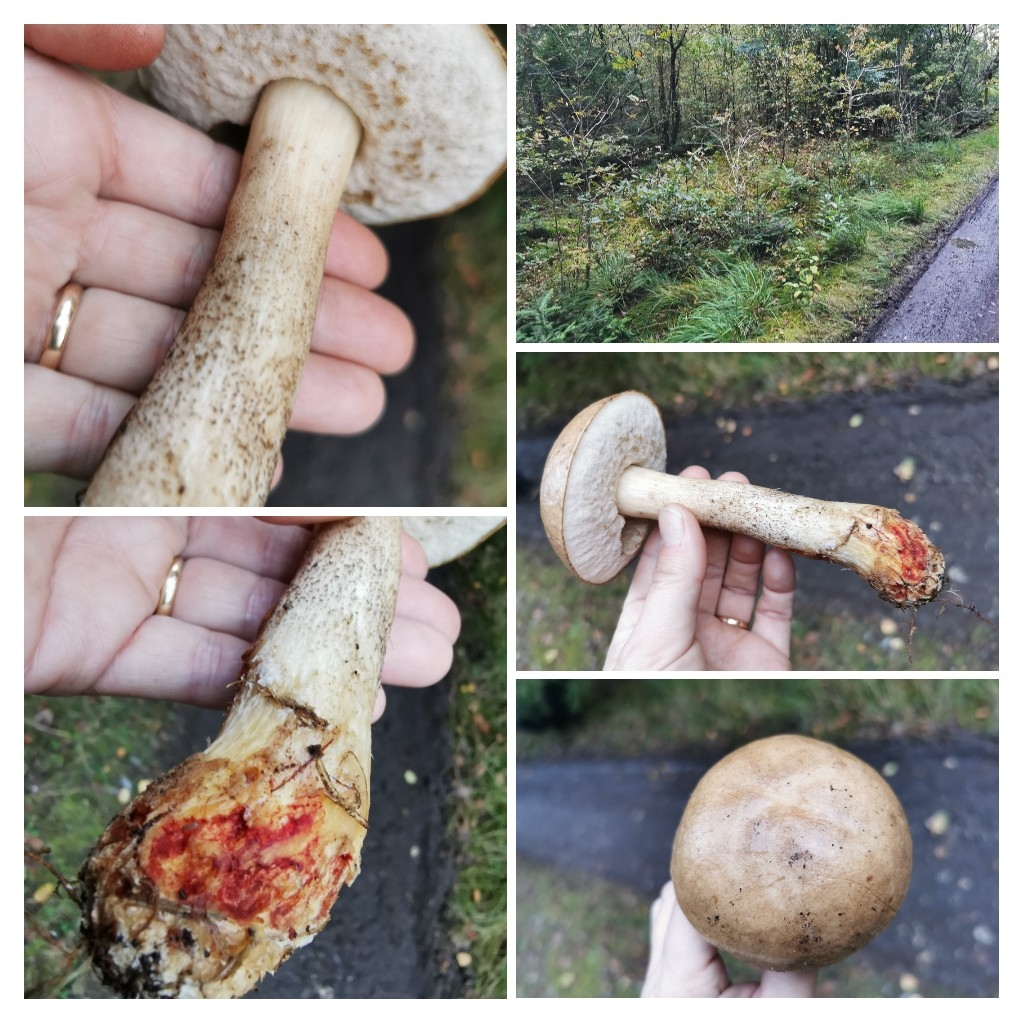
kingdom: Fungi
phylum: Basidiomycota
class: Agaricomycetes
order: Boletales
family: Boletaceae
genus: Leccinum
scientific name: Leccinum
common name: skælrørhat
